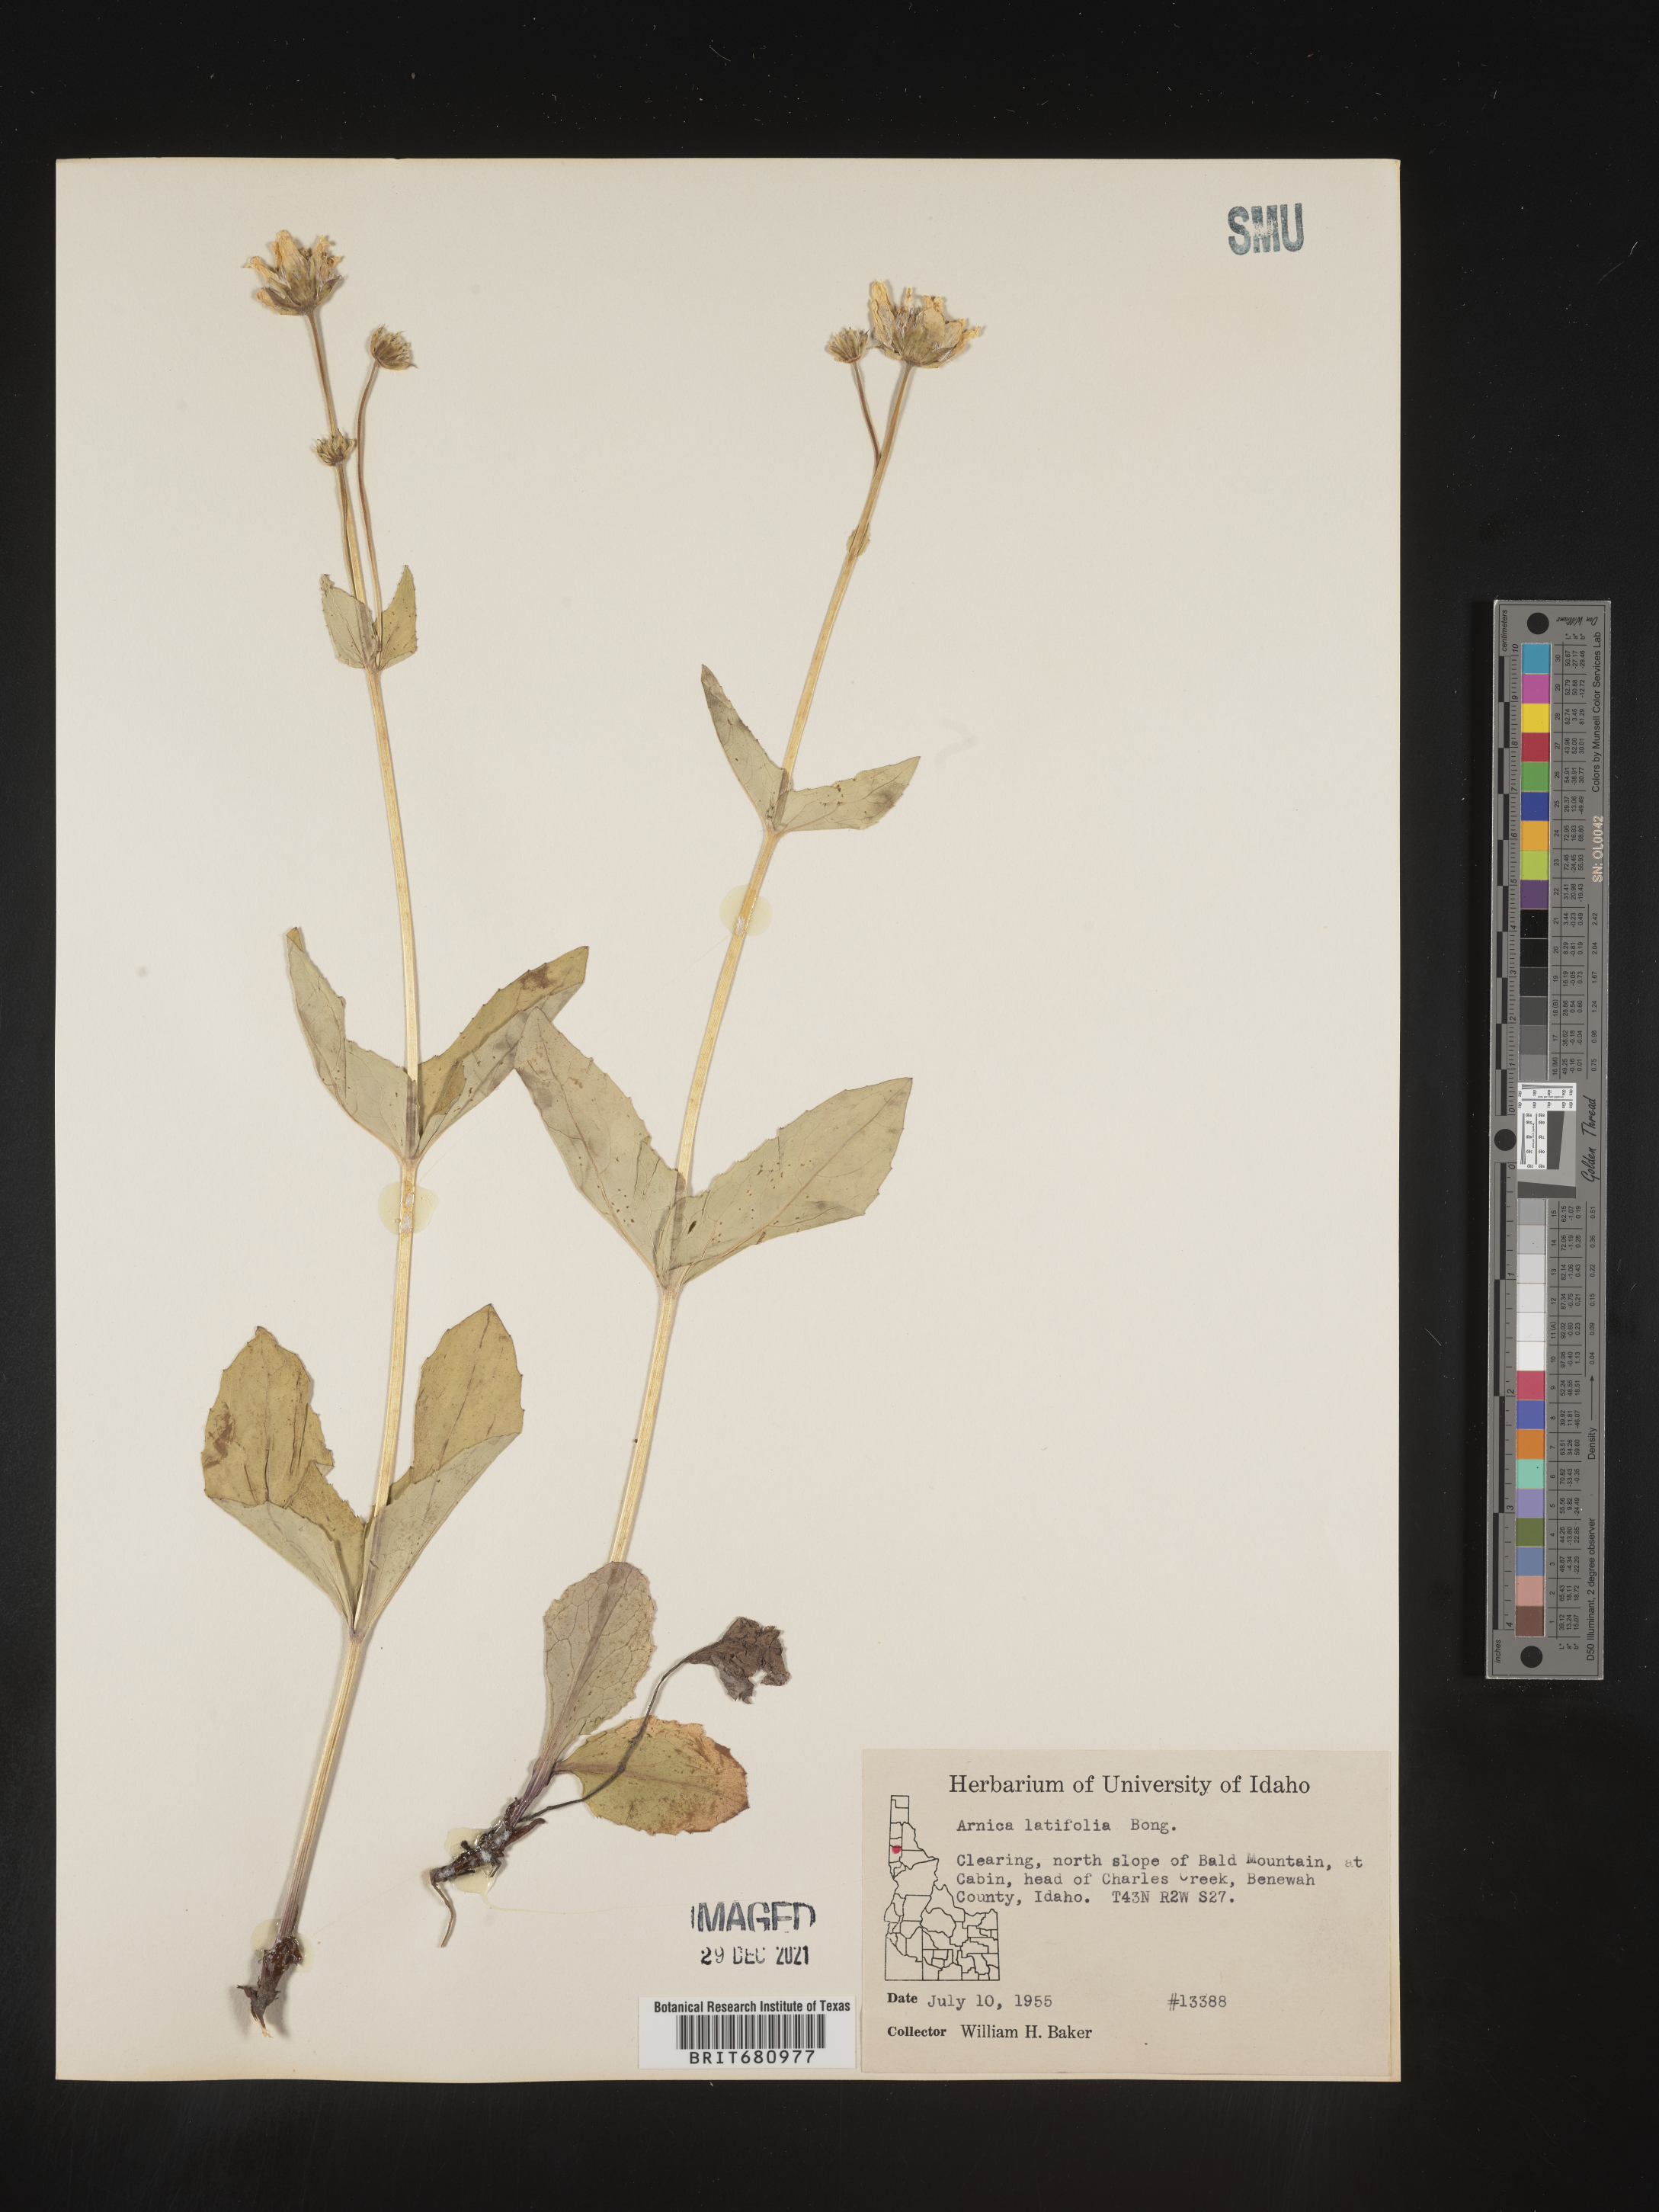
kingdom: Plantae
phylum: Tracheophyta
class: Magnoliopsida
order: Asterales
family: Asteraceae
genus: Arnica
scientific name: Arnica latifolia
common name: Arnica
